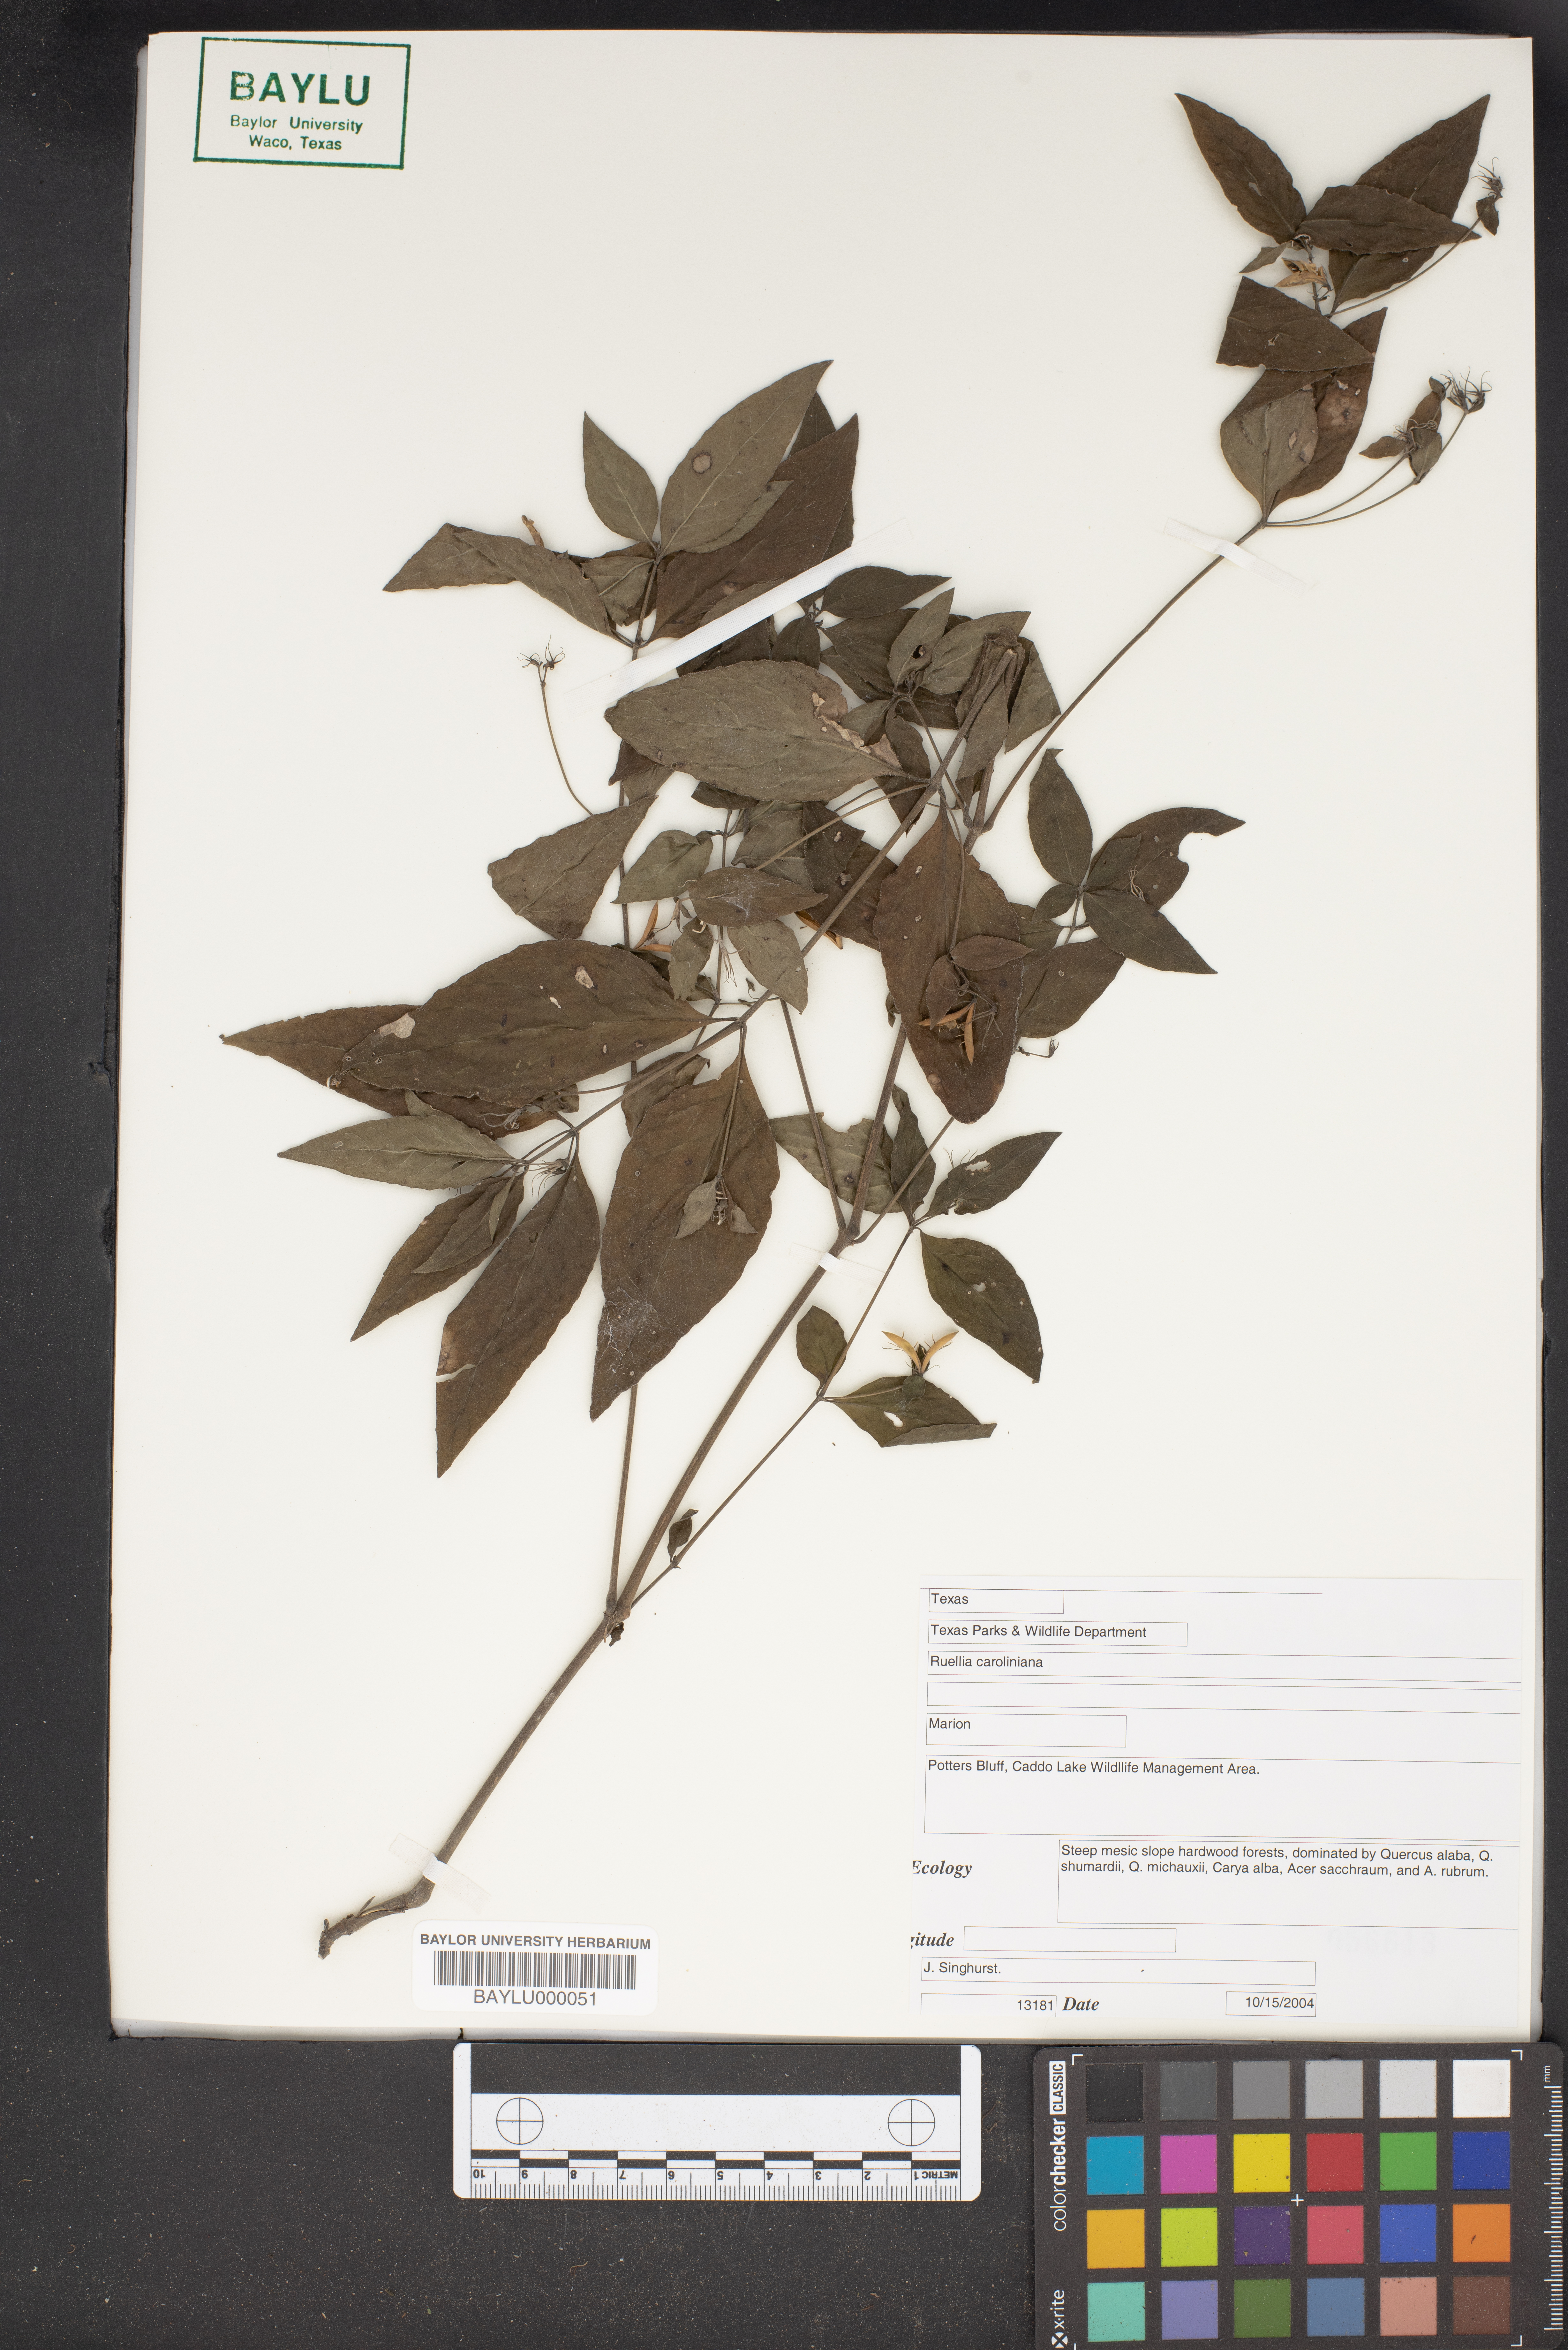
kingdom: Plantae
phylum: Tracheophyta
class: Magnoliopsida
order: Lamiales
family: Acanthaceae
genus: Ruellia
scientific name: Ruellia caroliniensis
